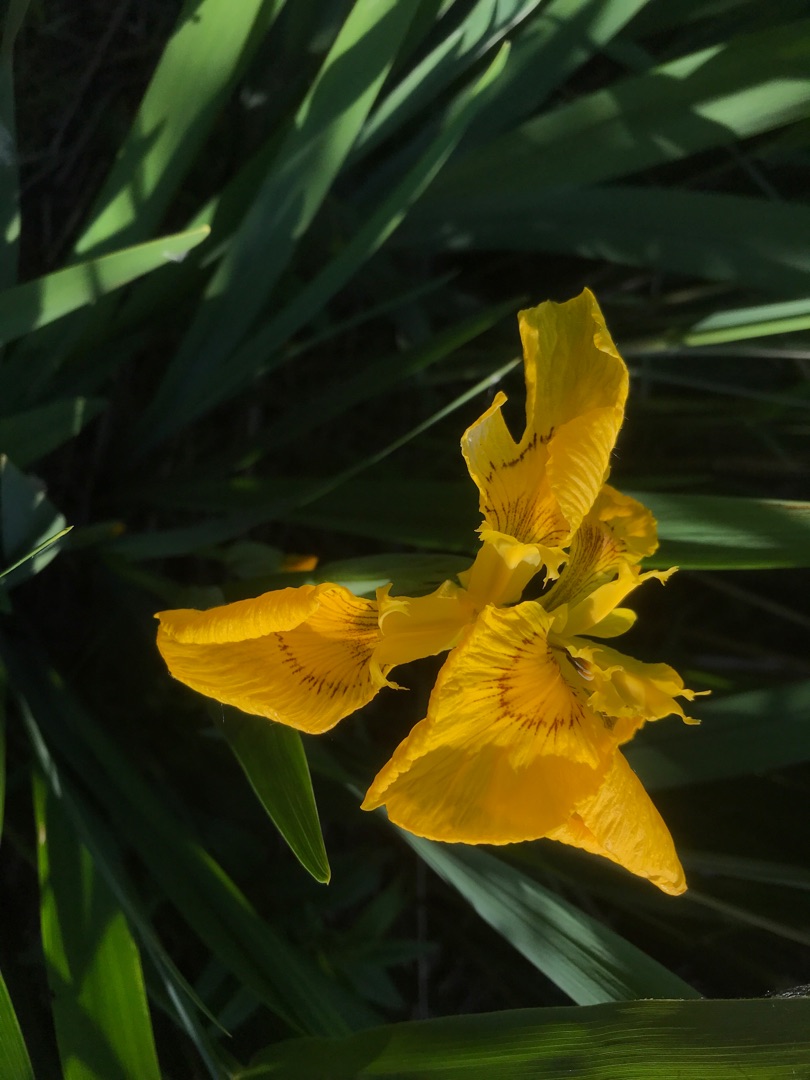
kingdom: Plantae
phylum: Tracheophyta
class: Liliopsida
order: Asparagales
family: Iridaceae
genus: Iris
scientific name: Iris pseudacorus
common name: Gul iris
